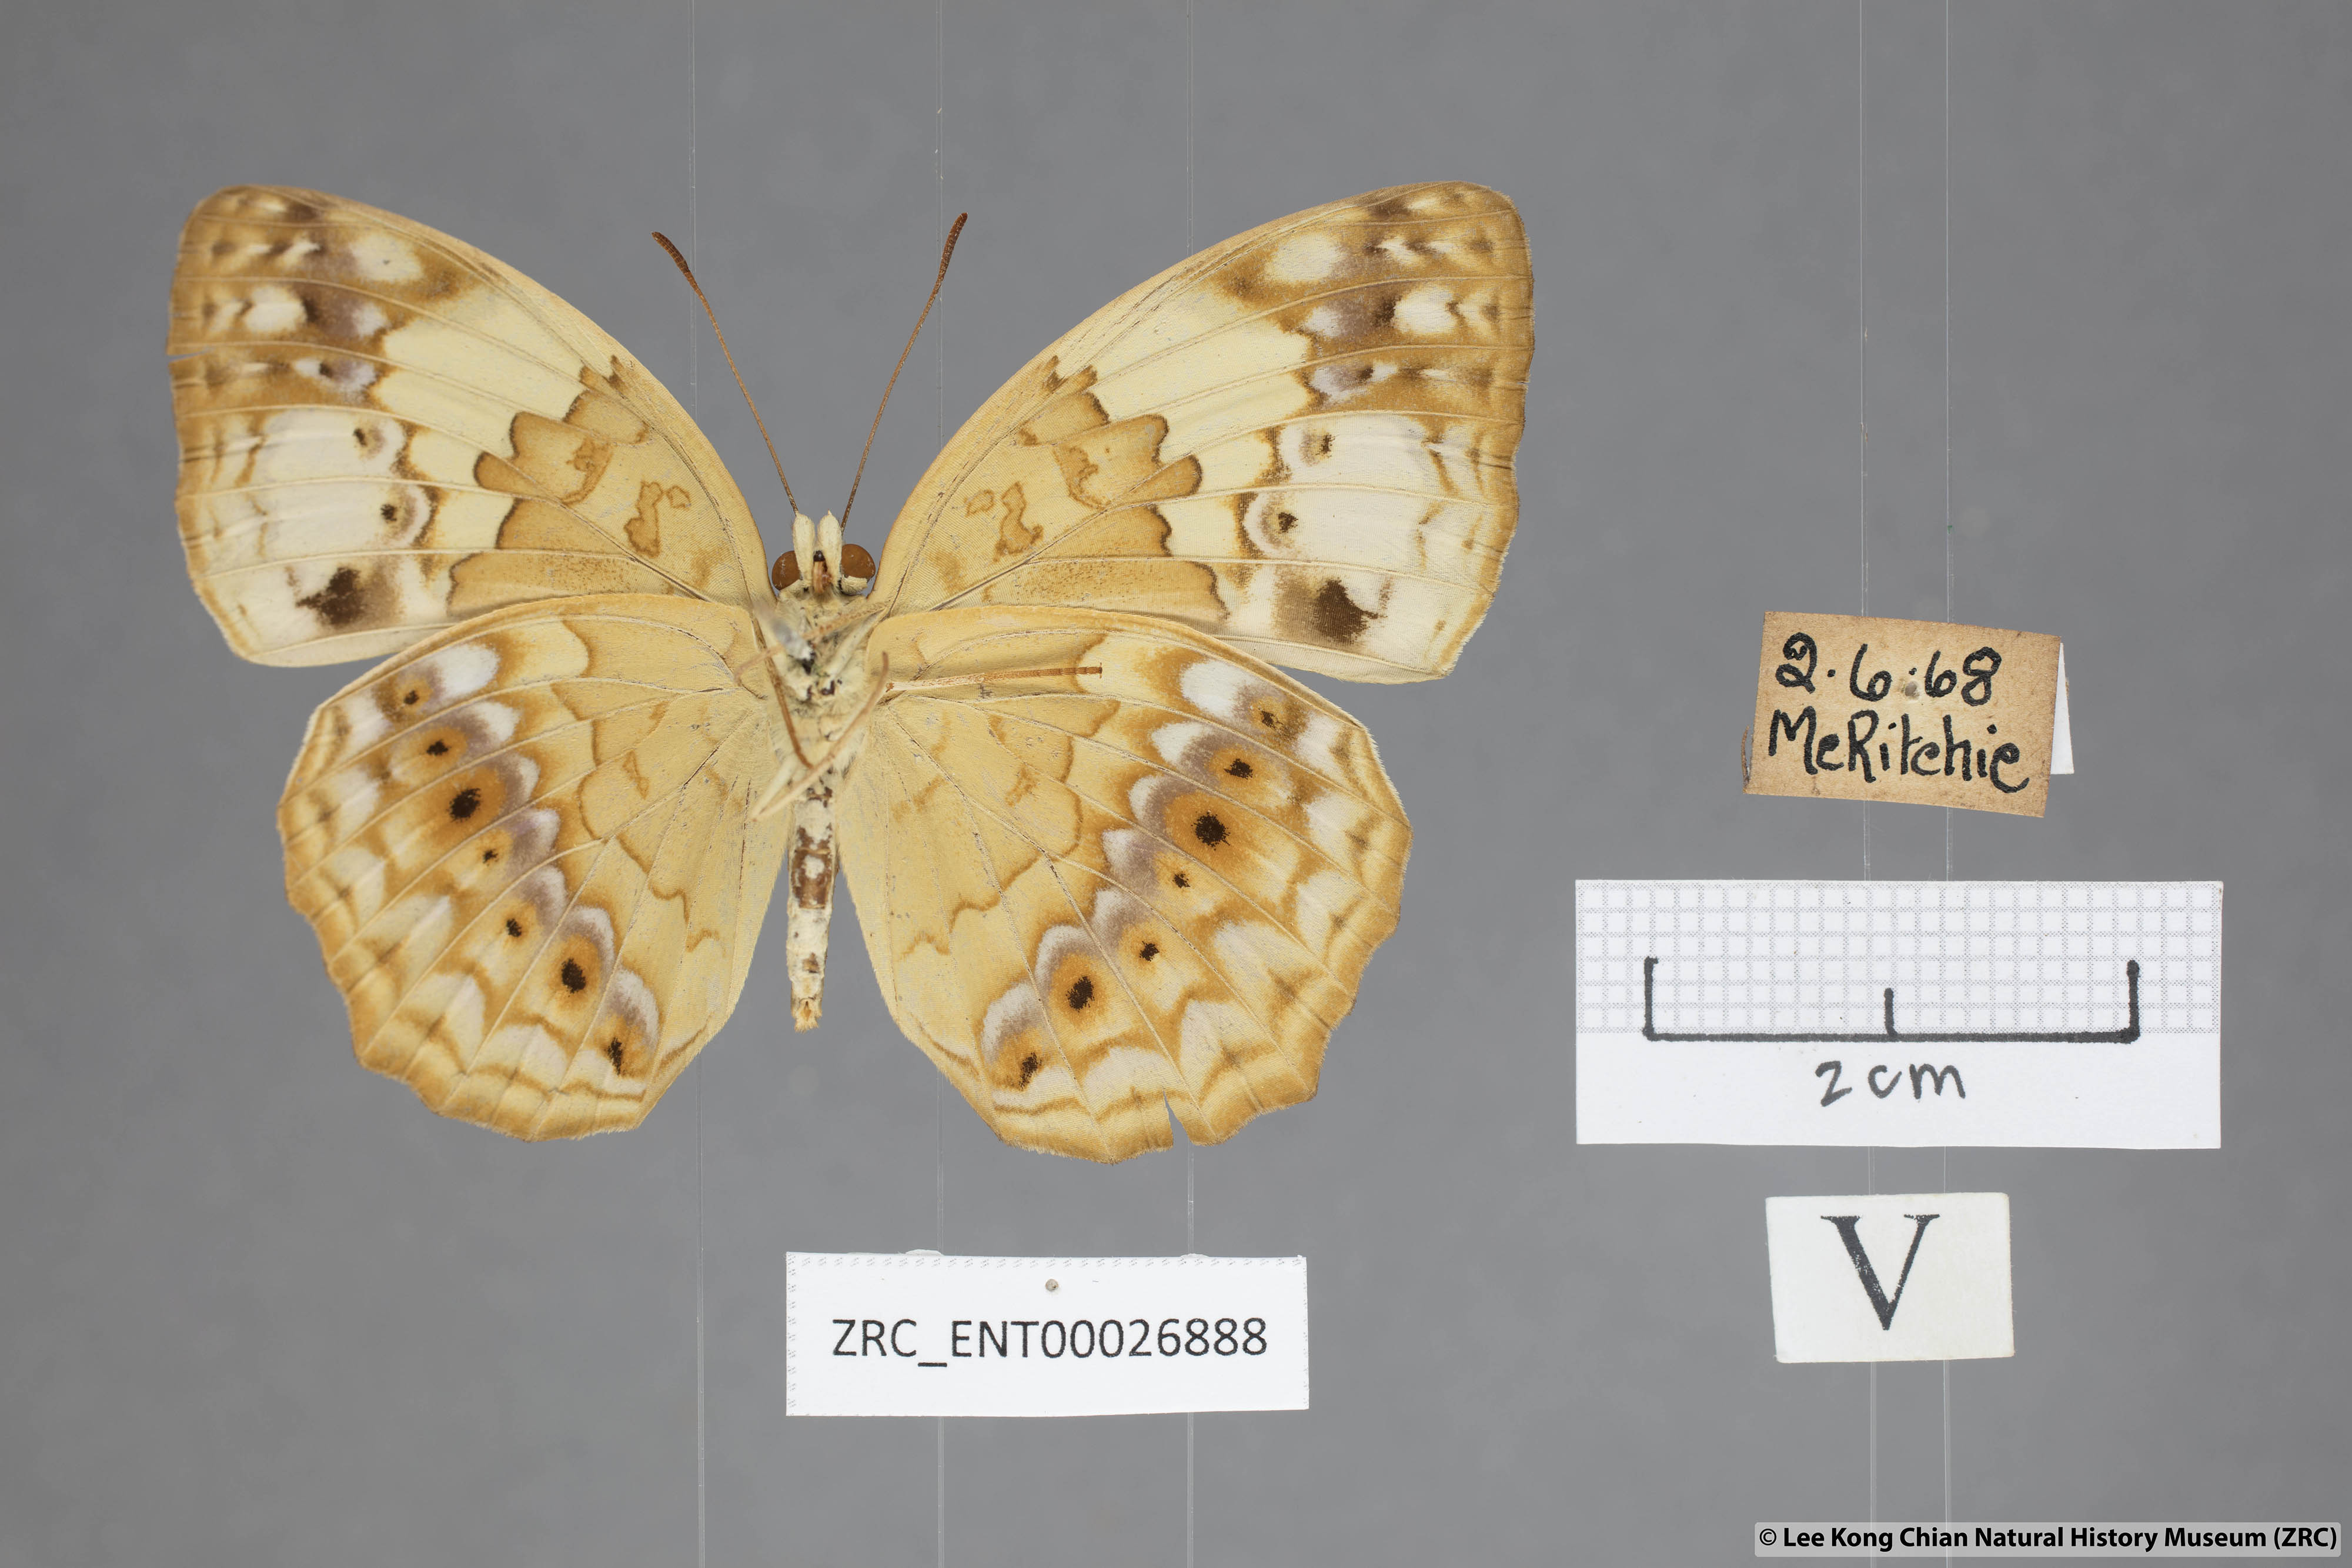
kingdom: Animalia
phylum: Arthropoda
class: Insecta
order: Lepidoptera
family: Nymphalidae
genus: Cupha
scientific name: Cupha erymanthis
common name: Rustic
